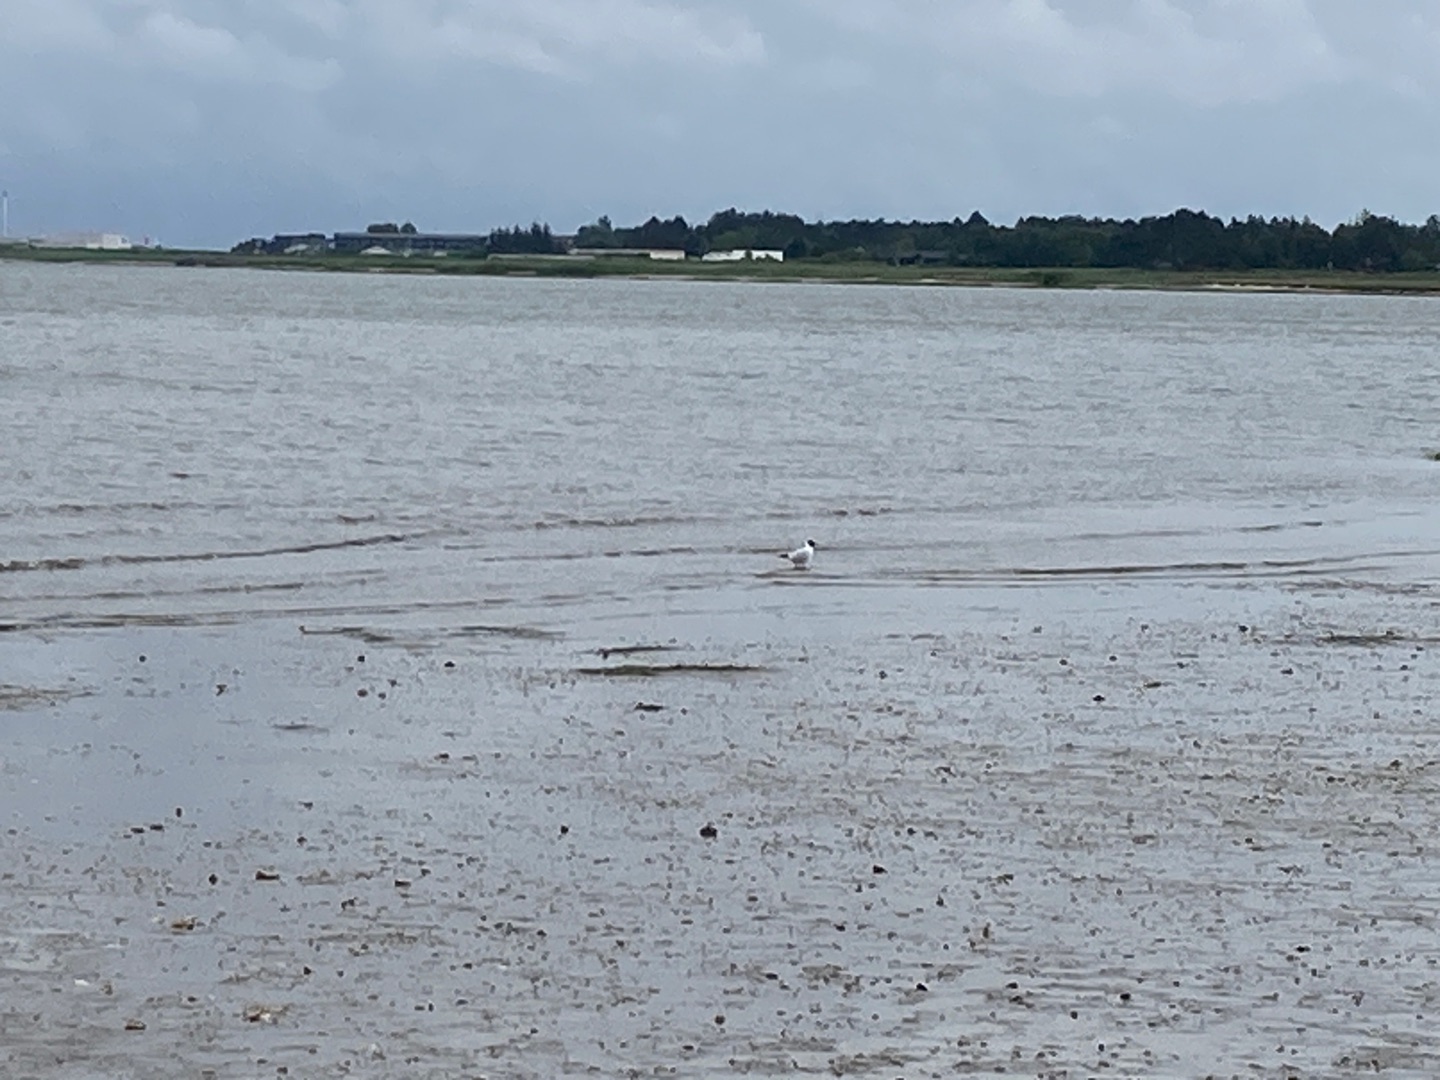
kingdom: Animalia
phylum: Chordata
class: Aves
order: Charadriiformes
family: Laridae
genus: Chroicocephalus
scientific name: Chroicocephalus ridibundus
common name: Hættemåge
